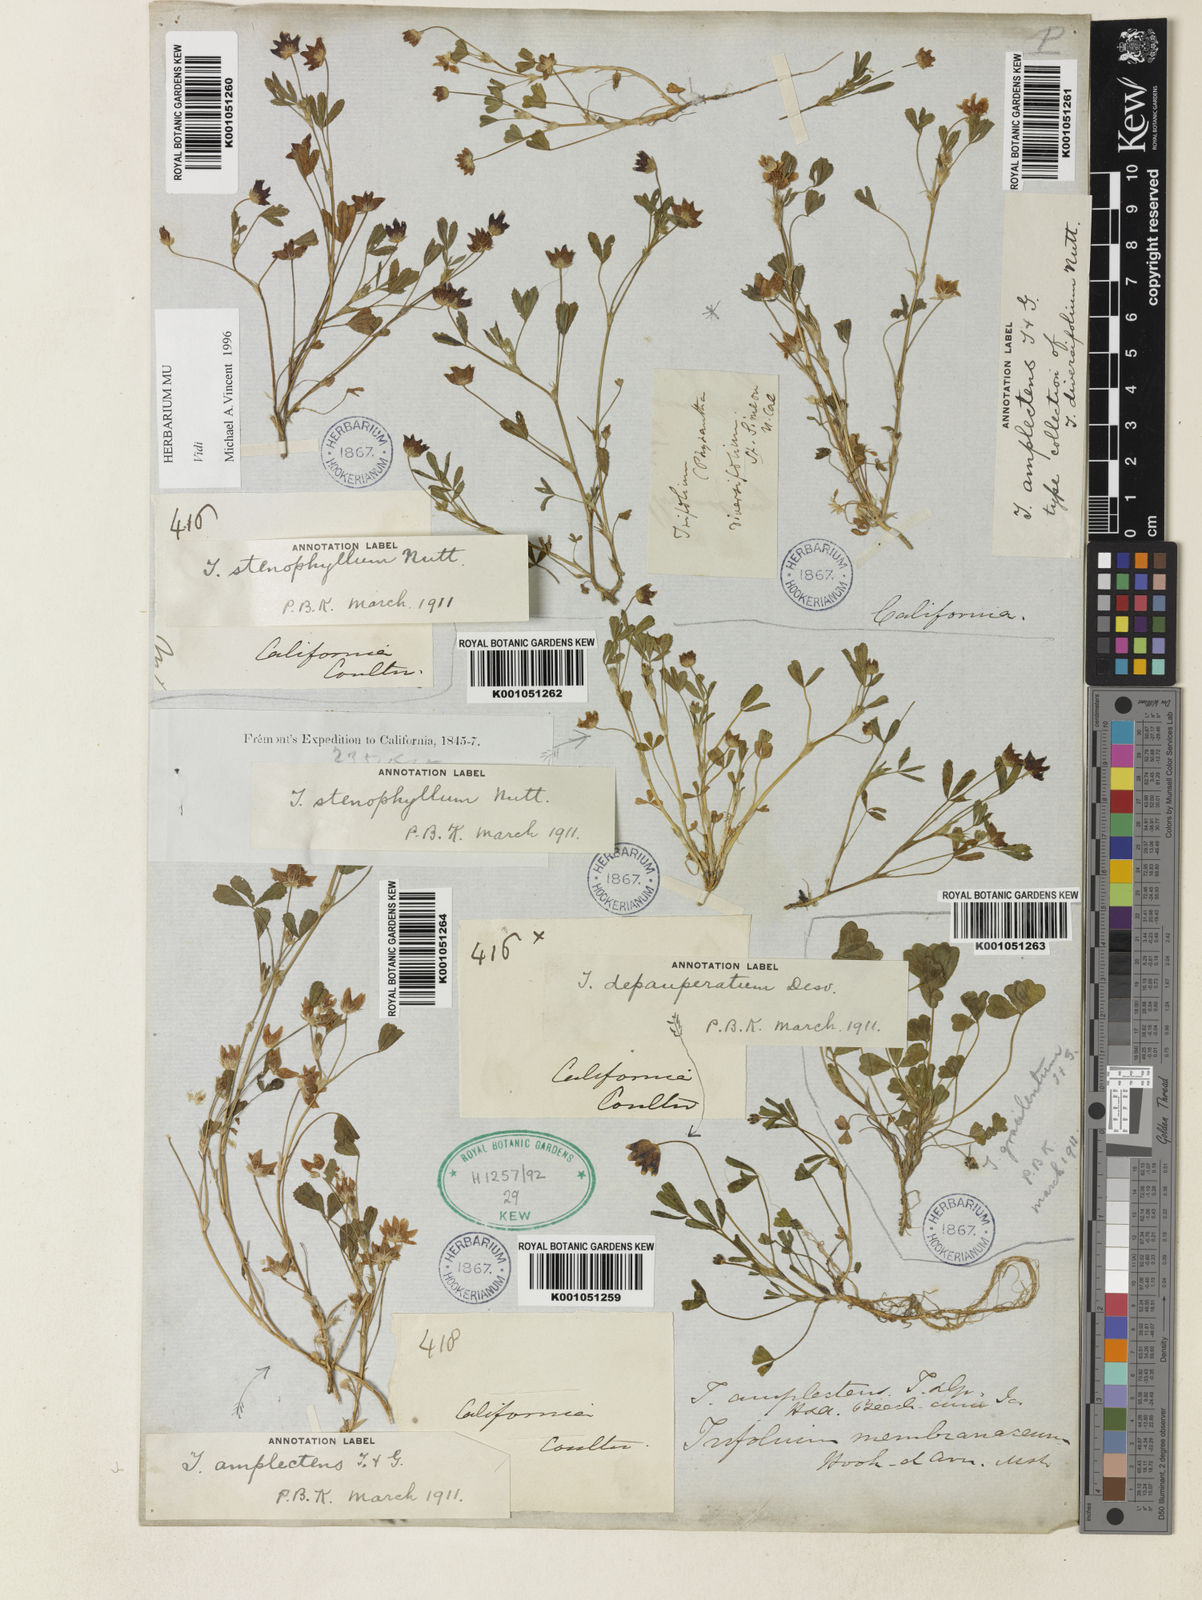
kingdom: Plantae
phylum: Tracheophyta
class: Magnoliopsida
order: Fabales
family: Fabaceae
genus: Trifolium
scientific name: Trifolium depauperatum
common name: Poverty clover
